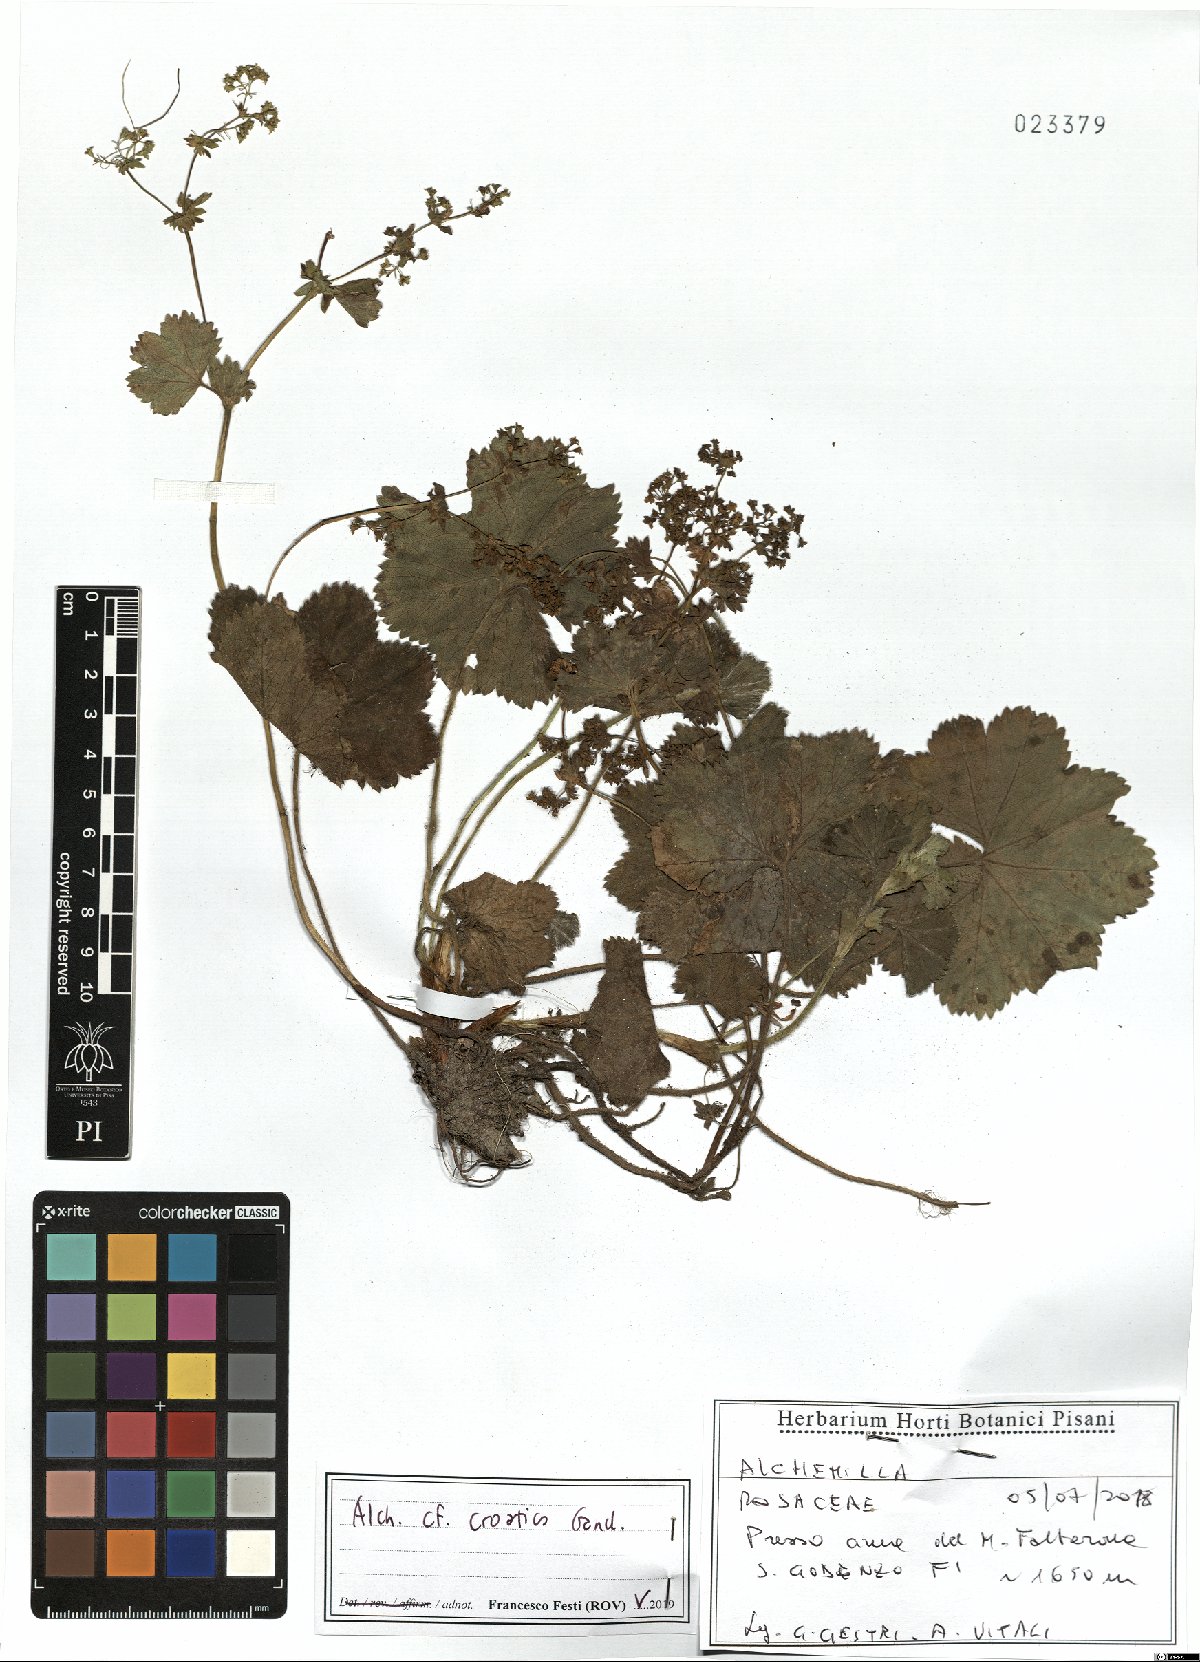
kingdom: Plantae
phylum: Tracheophyta
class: Magnoliopsida
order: Rosales
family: Rosaceae
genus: Alchemilla
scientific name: Alchemilla croatica
